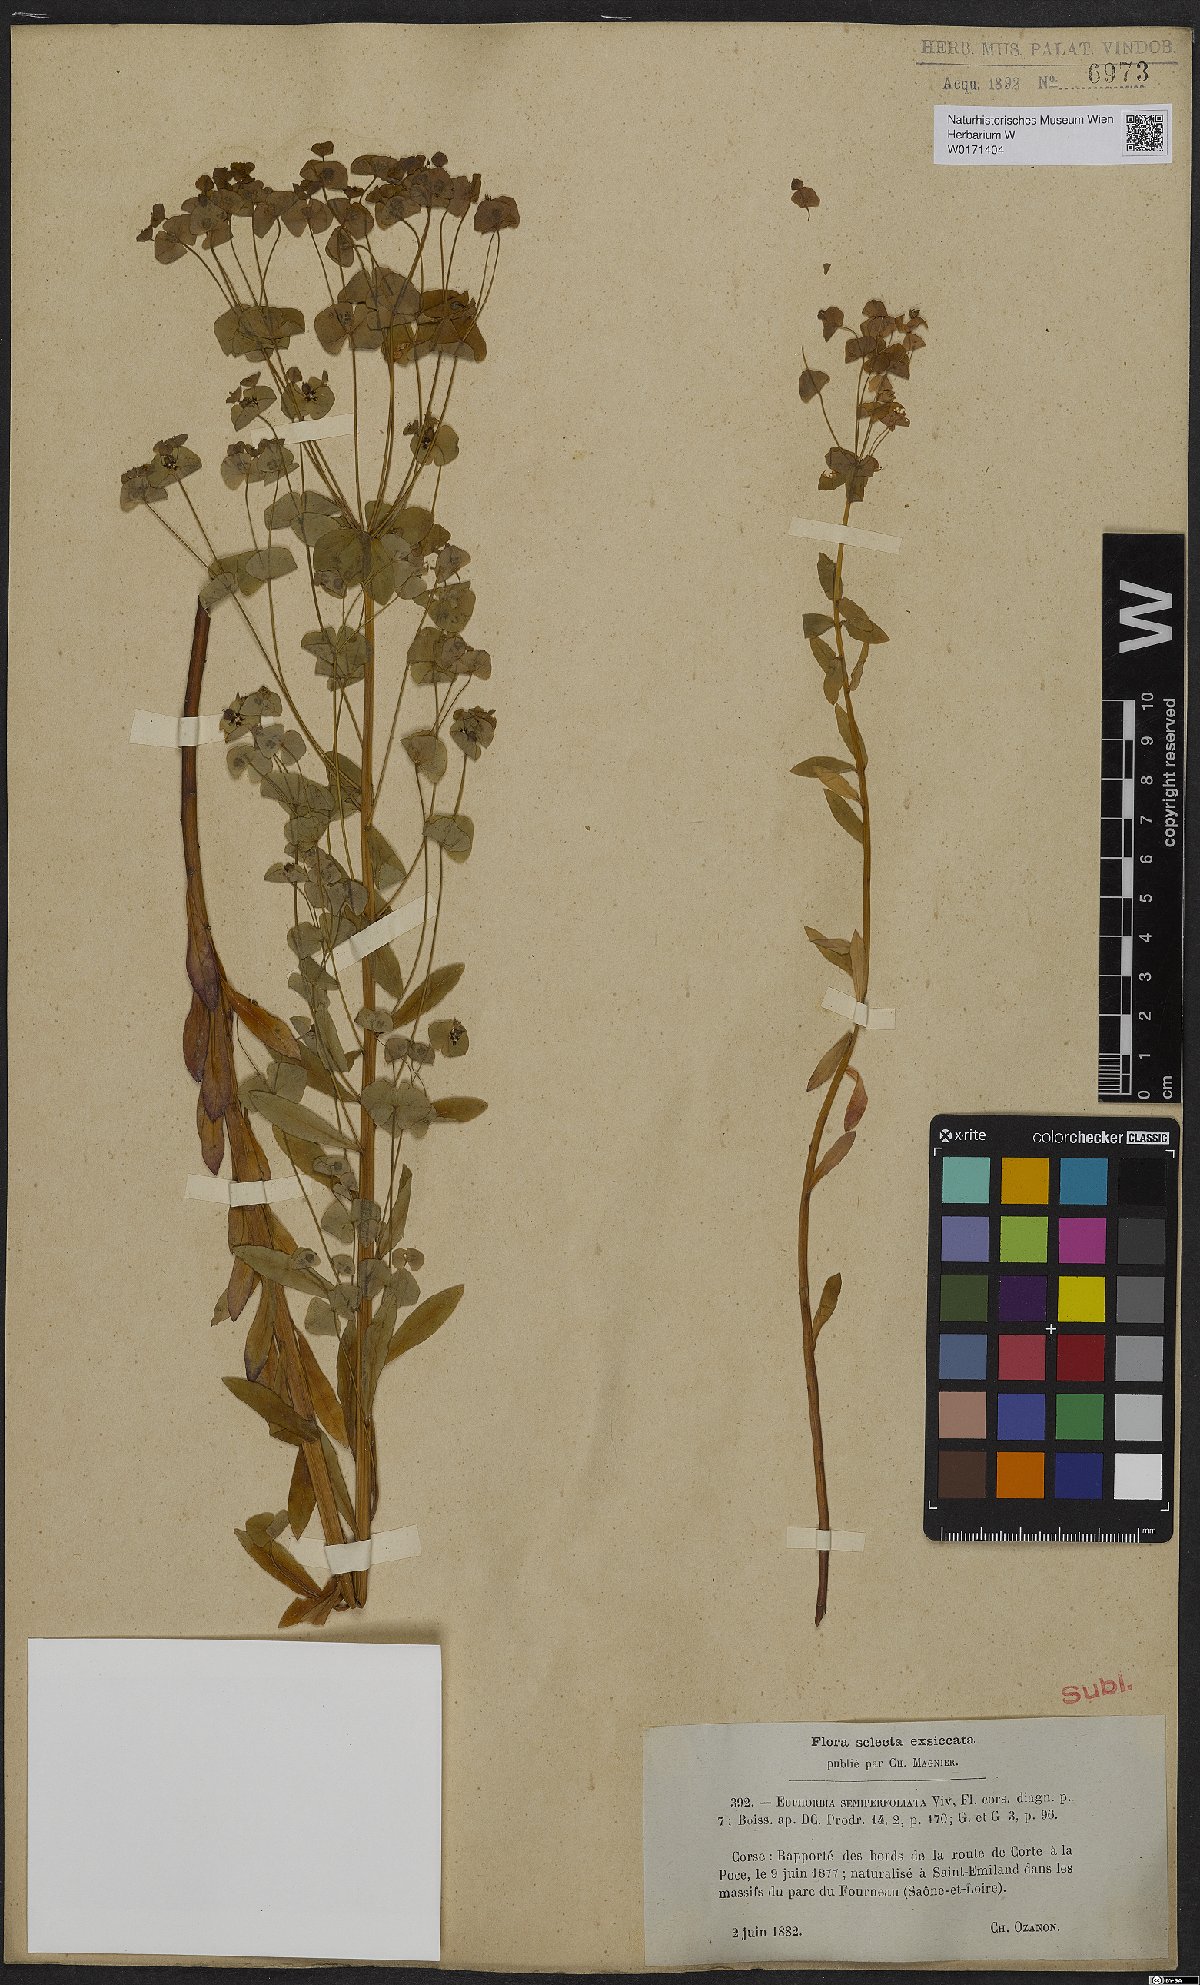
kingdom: Plantae
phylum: Tracheophyta
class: Magnoliopsida
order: Malpighiales
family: Euphorbiaceae
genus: Euphorbia
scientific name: Euphorbia semiperfoliata
